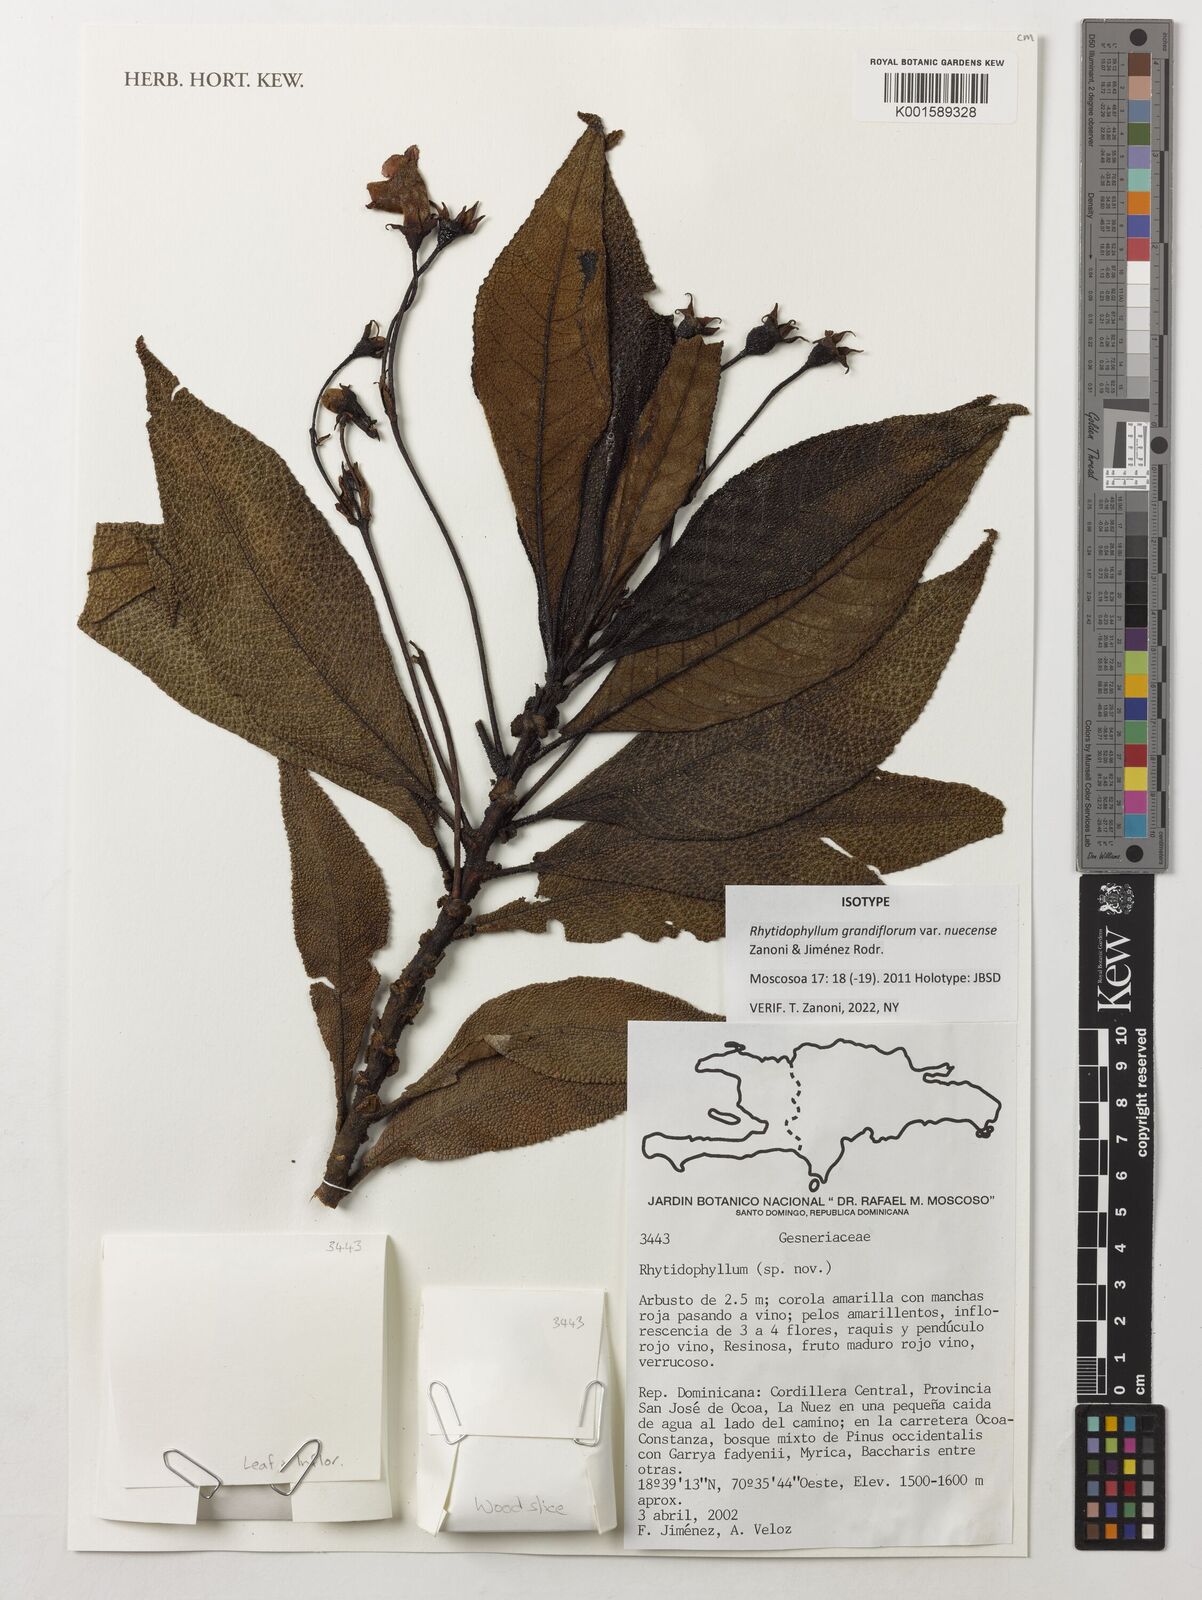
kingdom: Plantae
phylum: Tracheophyta
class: Magnoliopsida
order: Lamiales
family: Gesneriaceae
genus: Rhytidophyllum
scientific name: Rhytidophyllum grandiflorum
